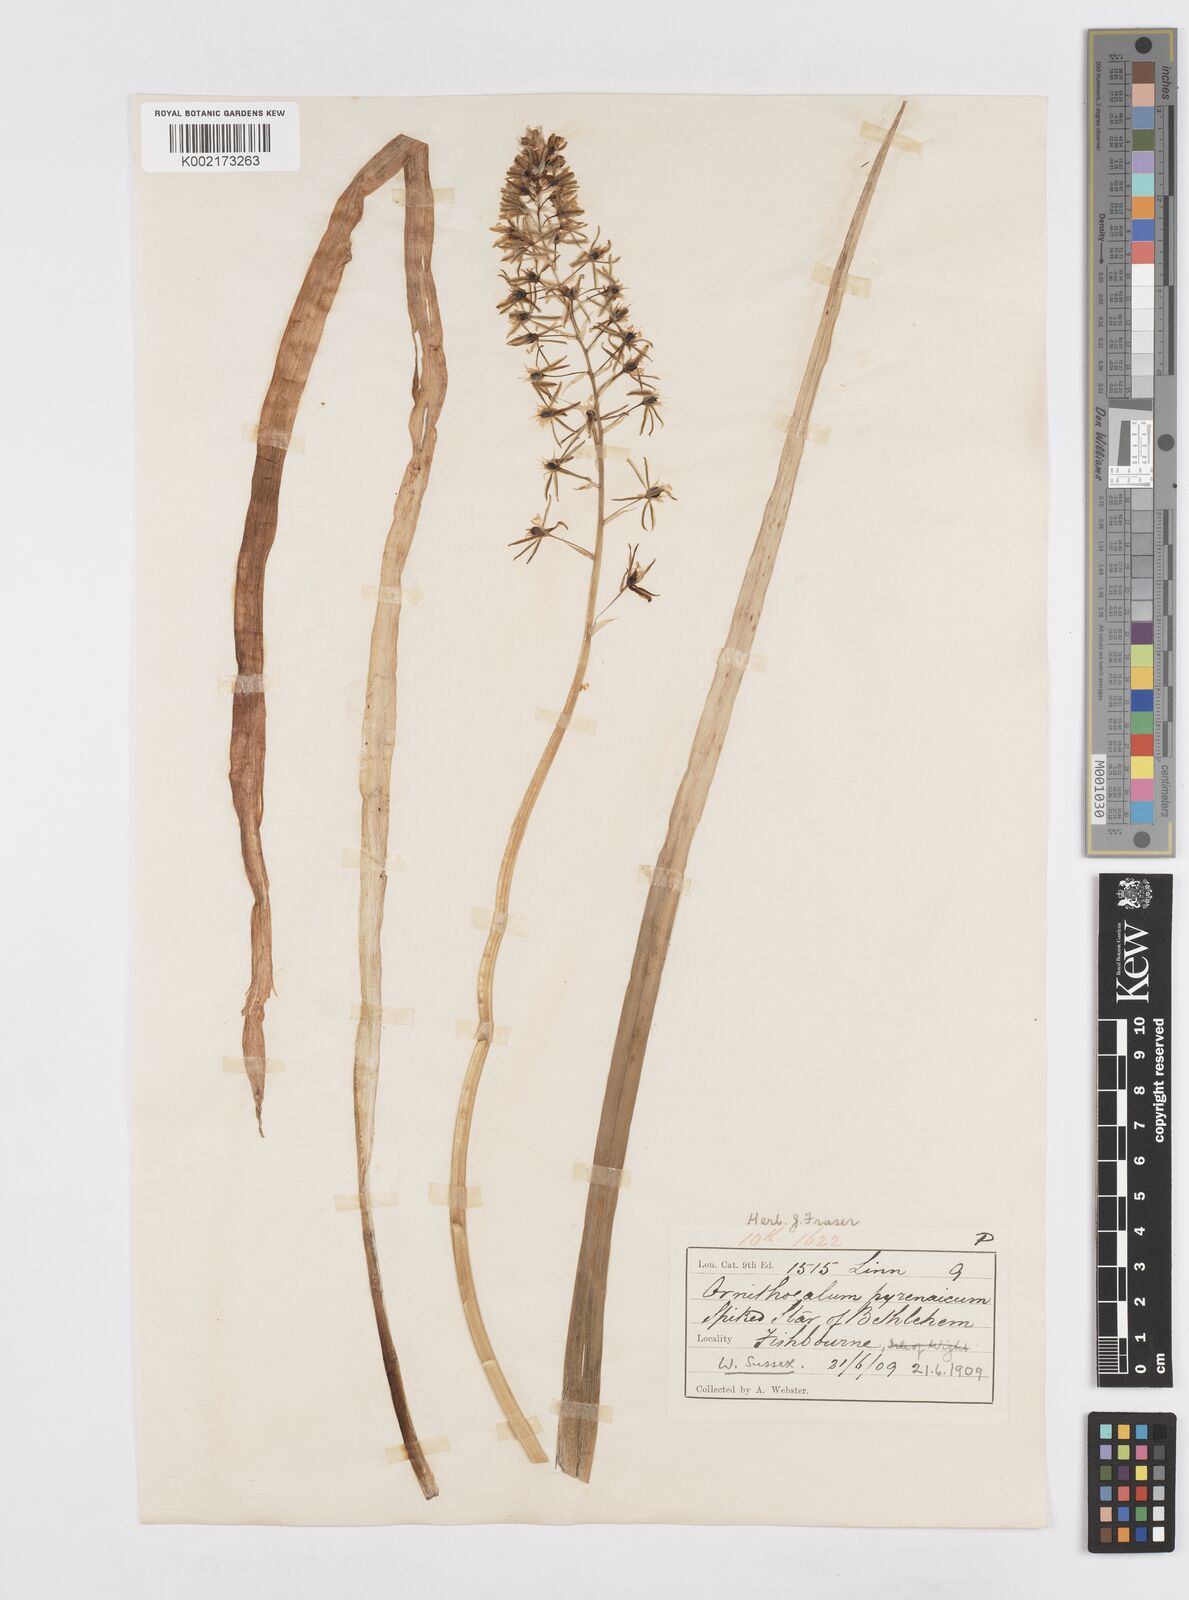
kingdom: Plantae
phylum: Tracheophyta
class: Liliopsida
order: Asparagales
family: Asparagaceae
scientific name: Asparagaceae
